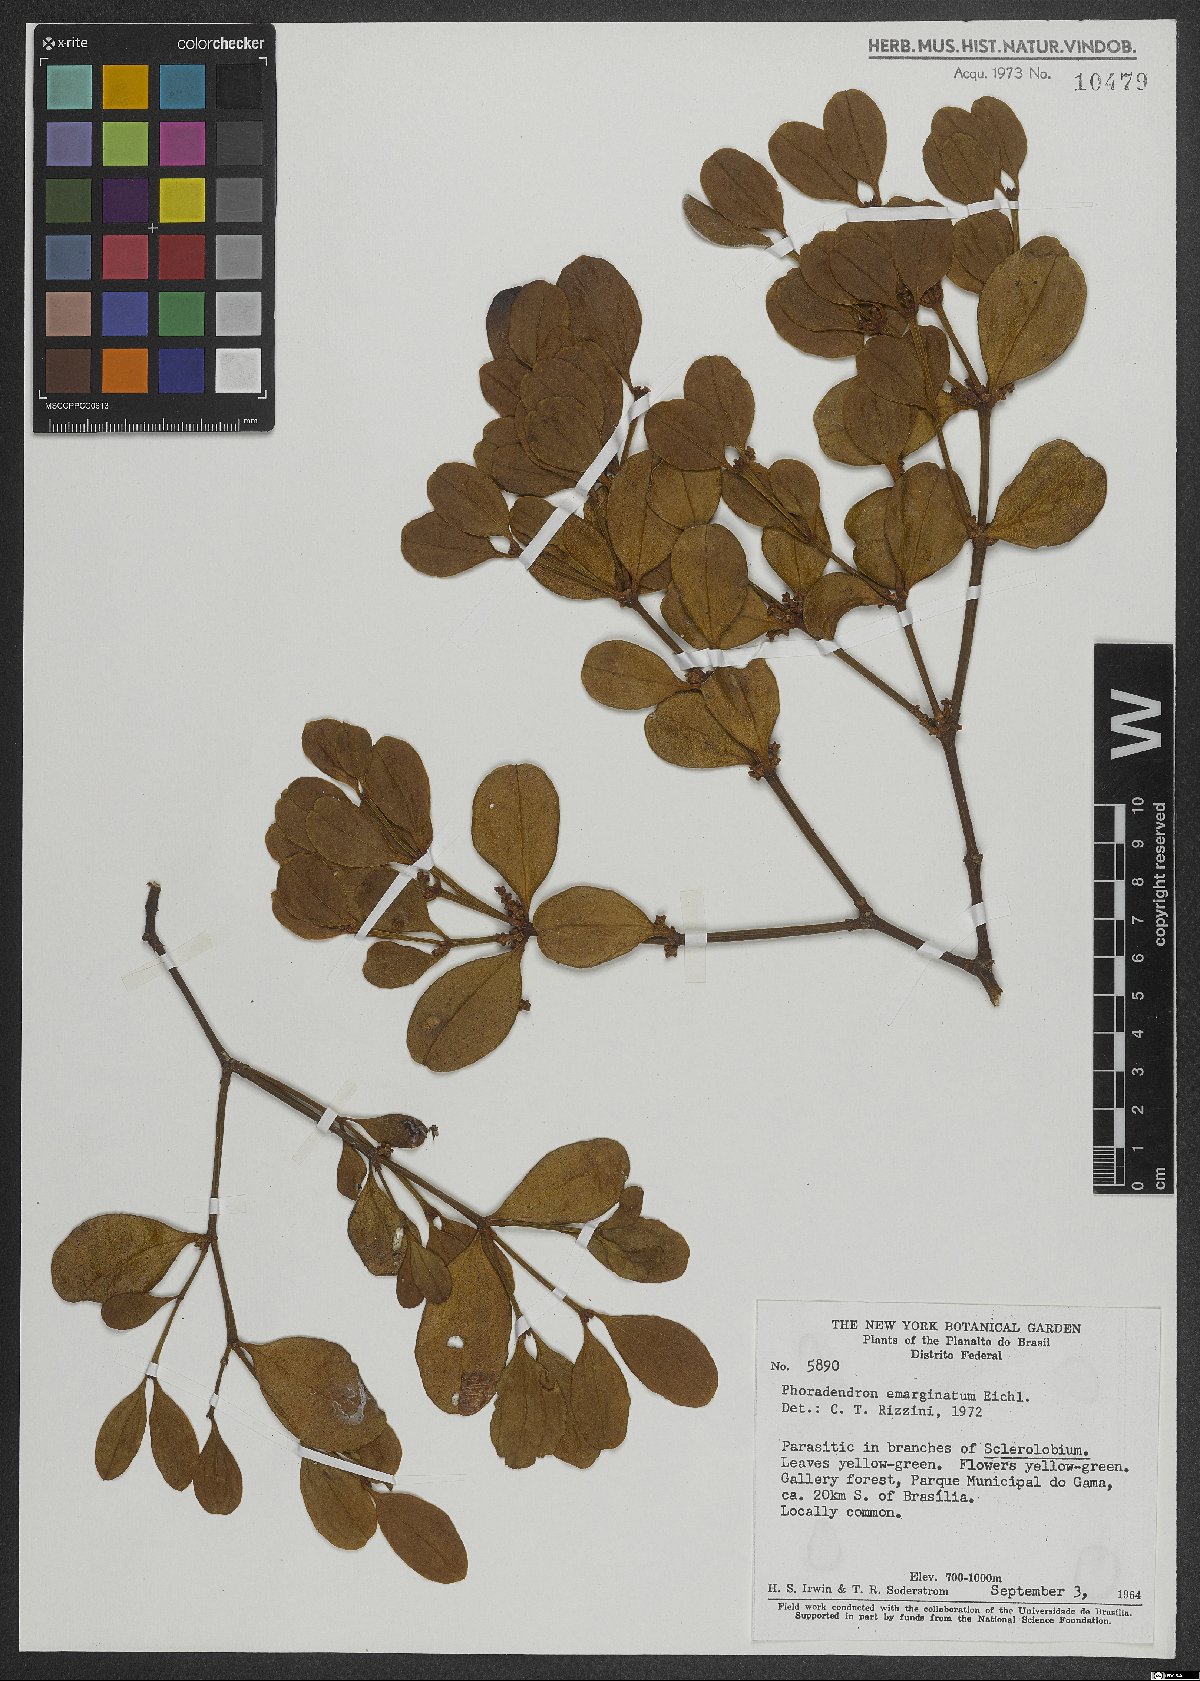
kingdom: Plantae
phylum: Tracheophyta
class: Magnoliopsida
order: Santalales
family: Viscaceae
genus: Phoradendron
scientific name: Phoradendron mucronatum
